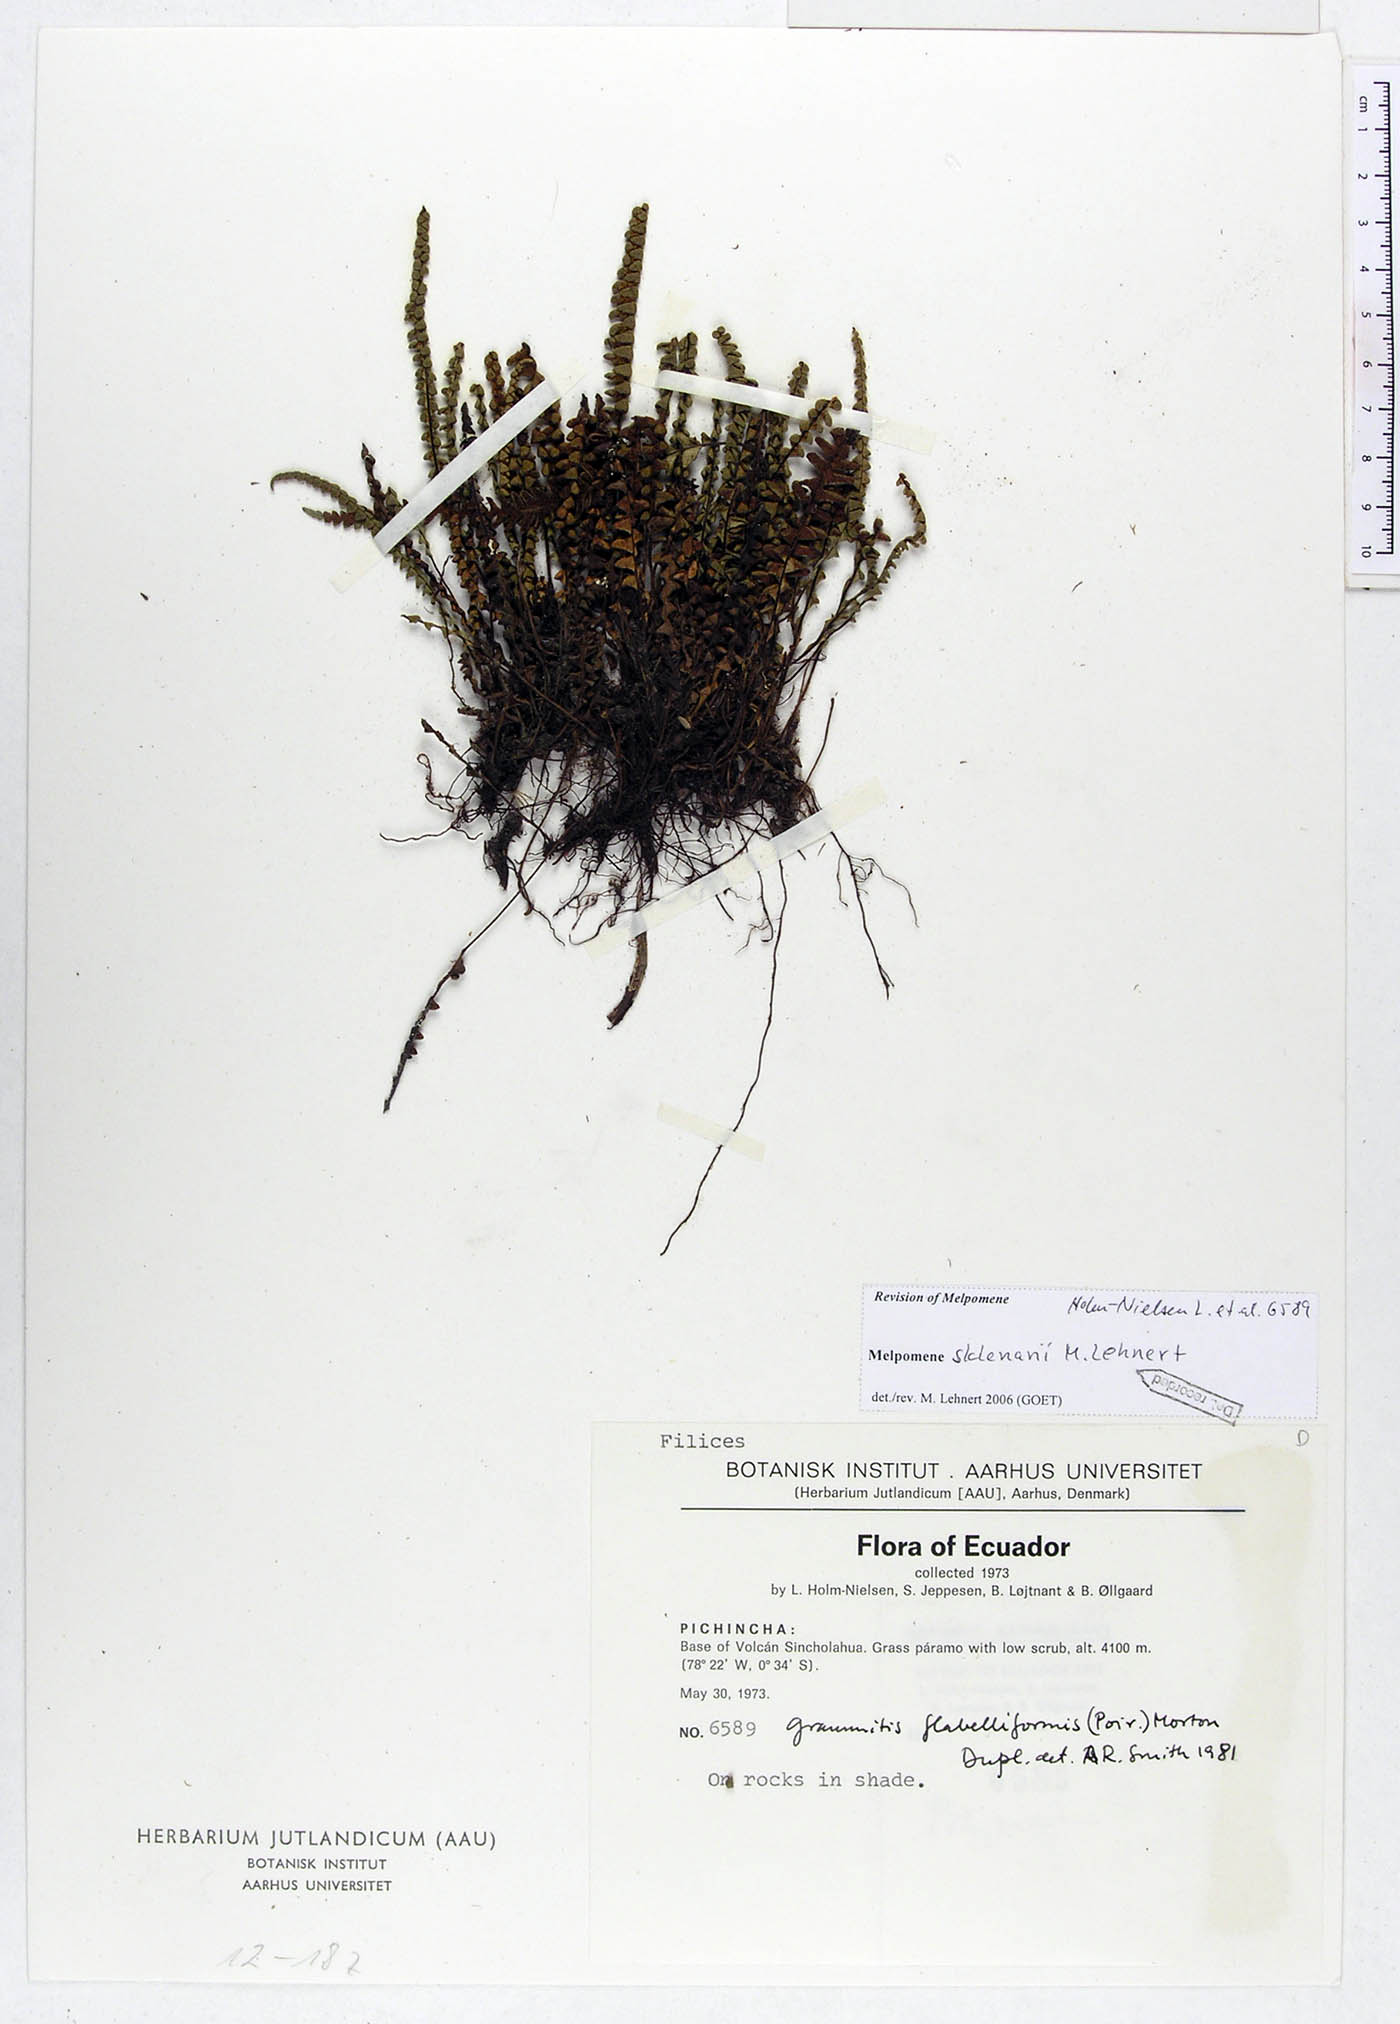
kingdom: Plantae
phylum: Tracheophyta
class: Polypodiopsida
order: Polypodiales
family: Polypodiaceae
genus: Melpomene
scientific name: Melpomene sklenarii
